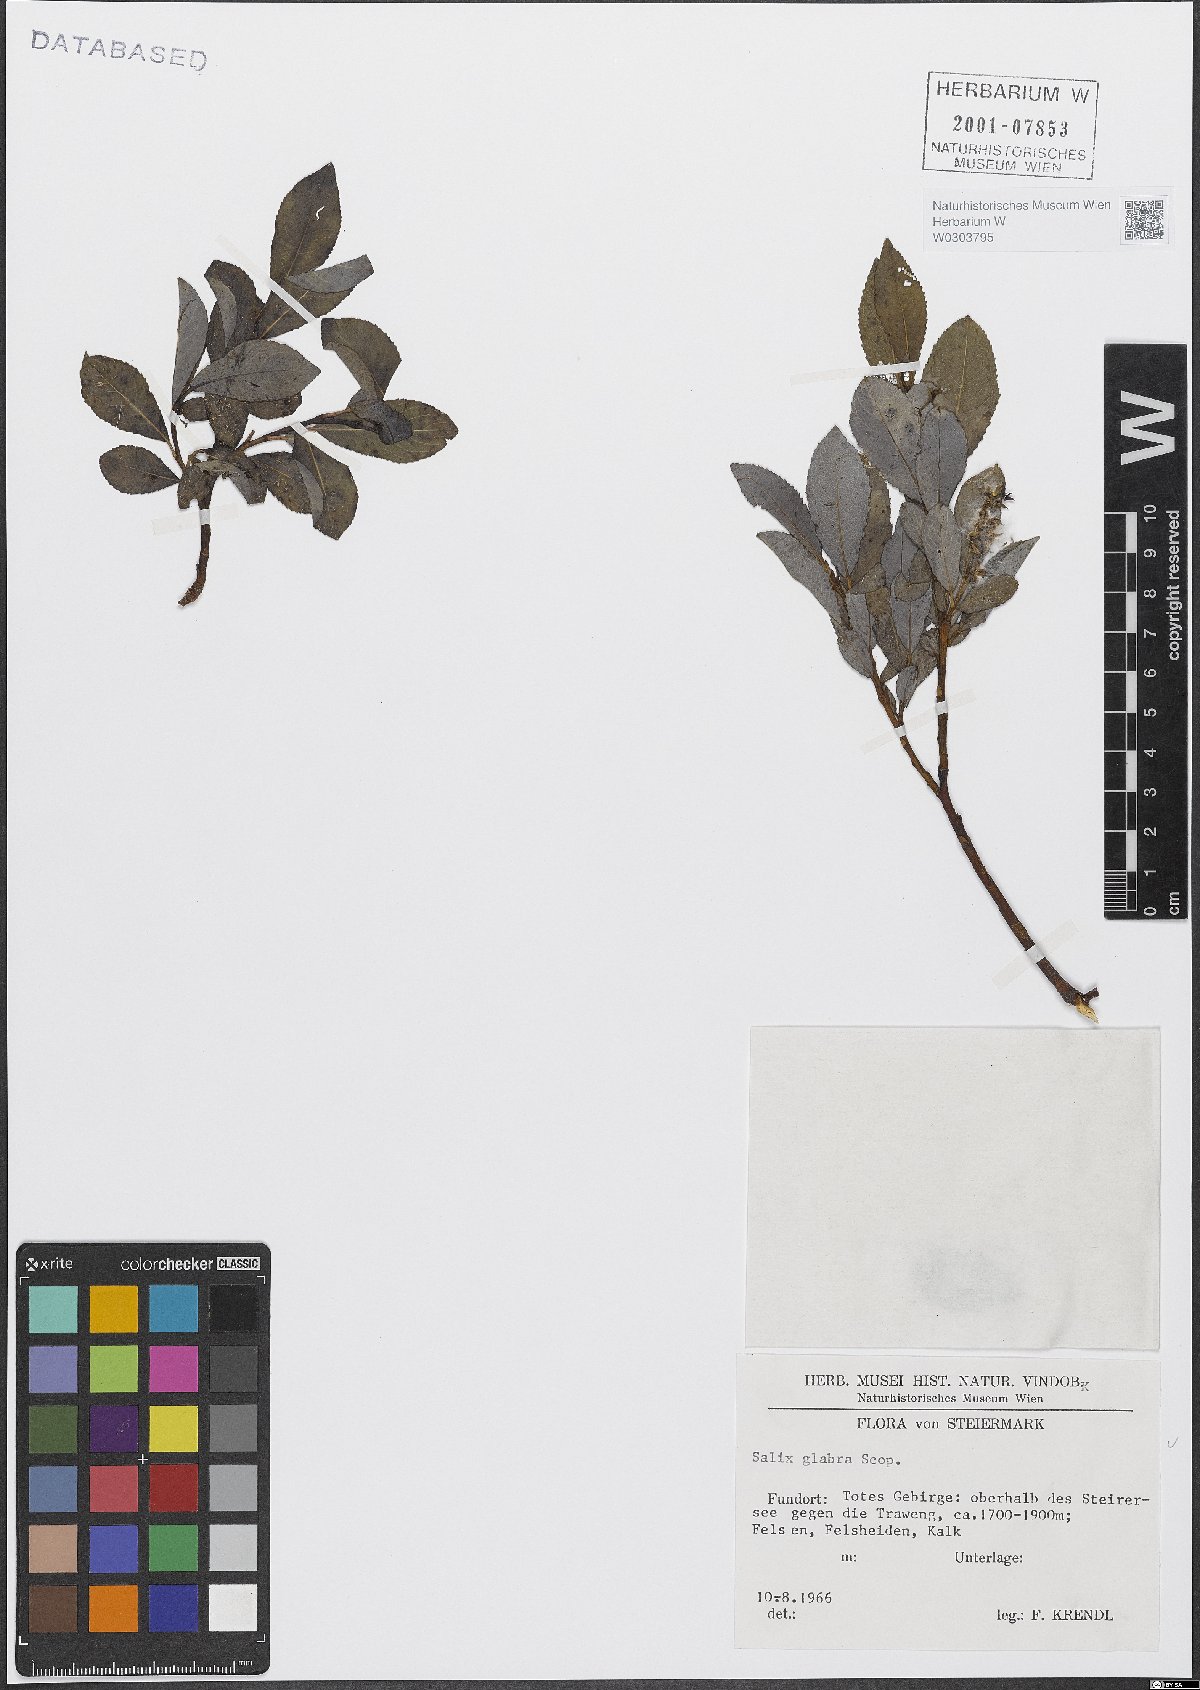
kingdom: Plantae
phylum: Tracheophyta
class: Magnoliopsida
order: Malpighiales
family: Salicaceae
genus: Salix
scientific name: Salix glabra
